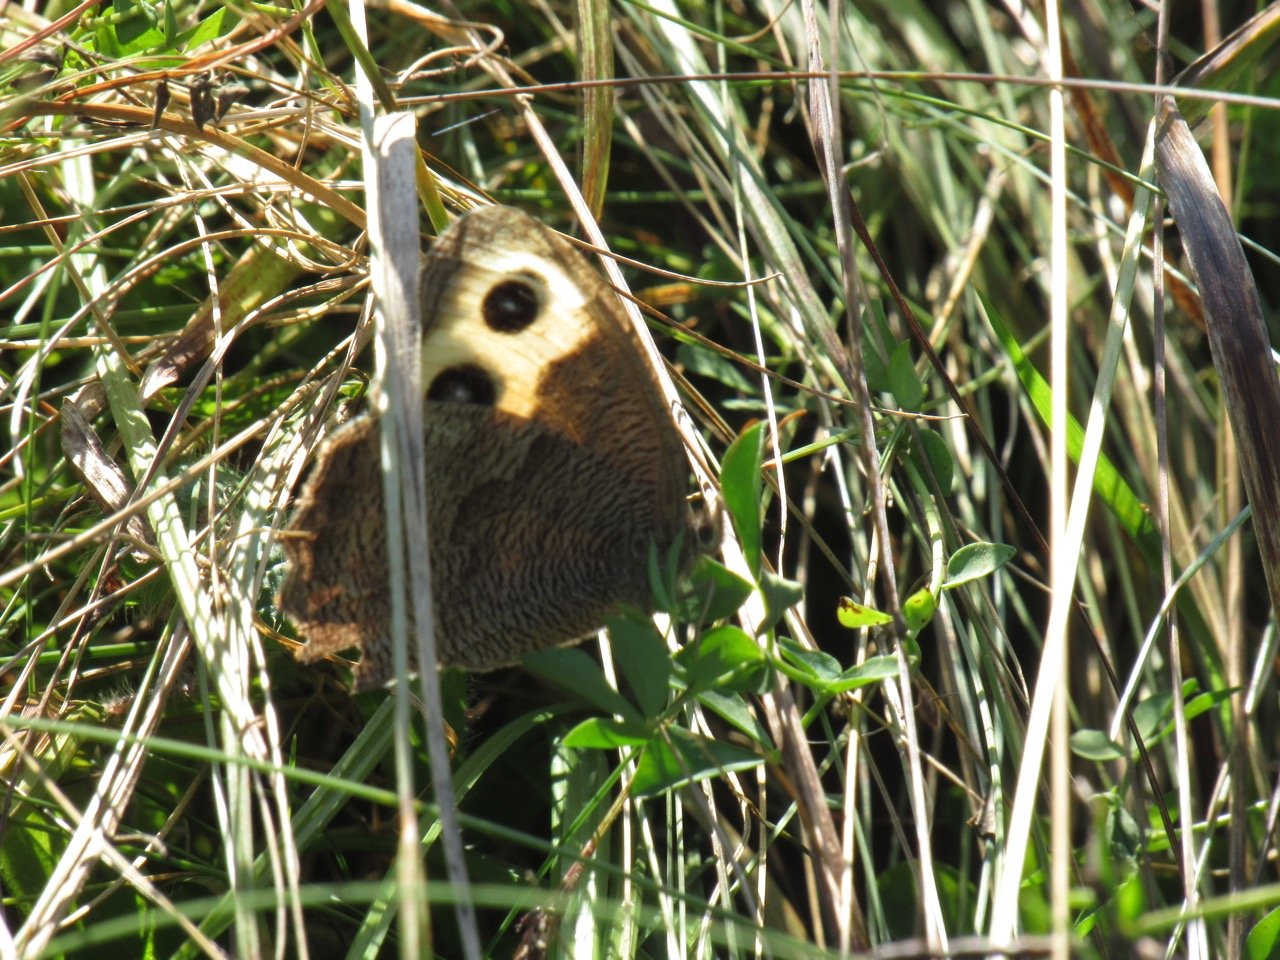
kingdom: Animalia
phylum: Arthropoda
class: Insecta
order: Lepidoptera
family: Nymphalidae
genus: Cercyonis
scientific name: Cercyonis pegala
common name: Common Wood-Nymph
